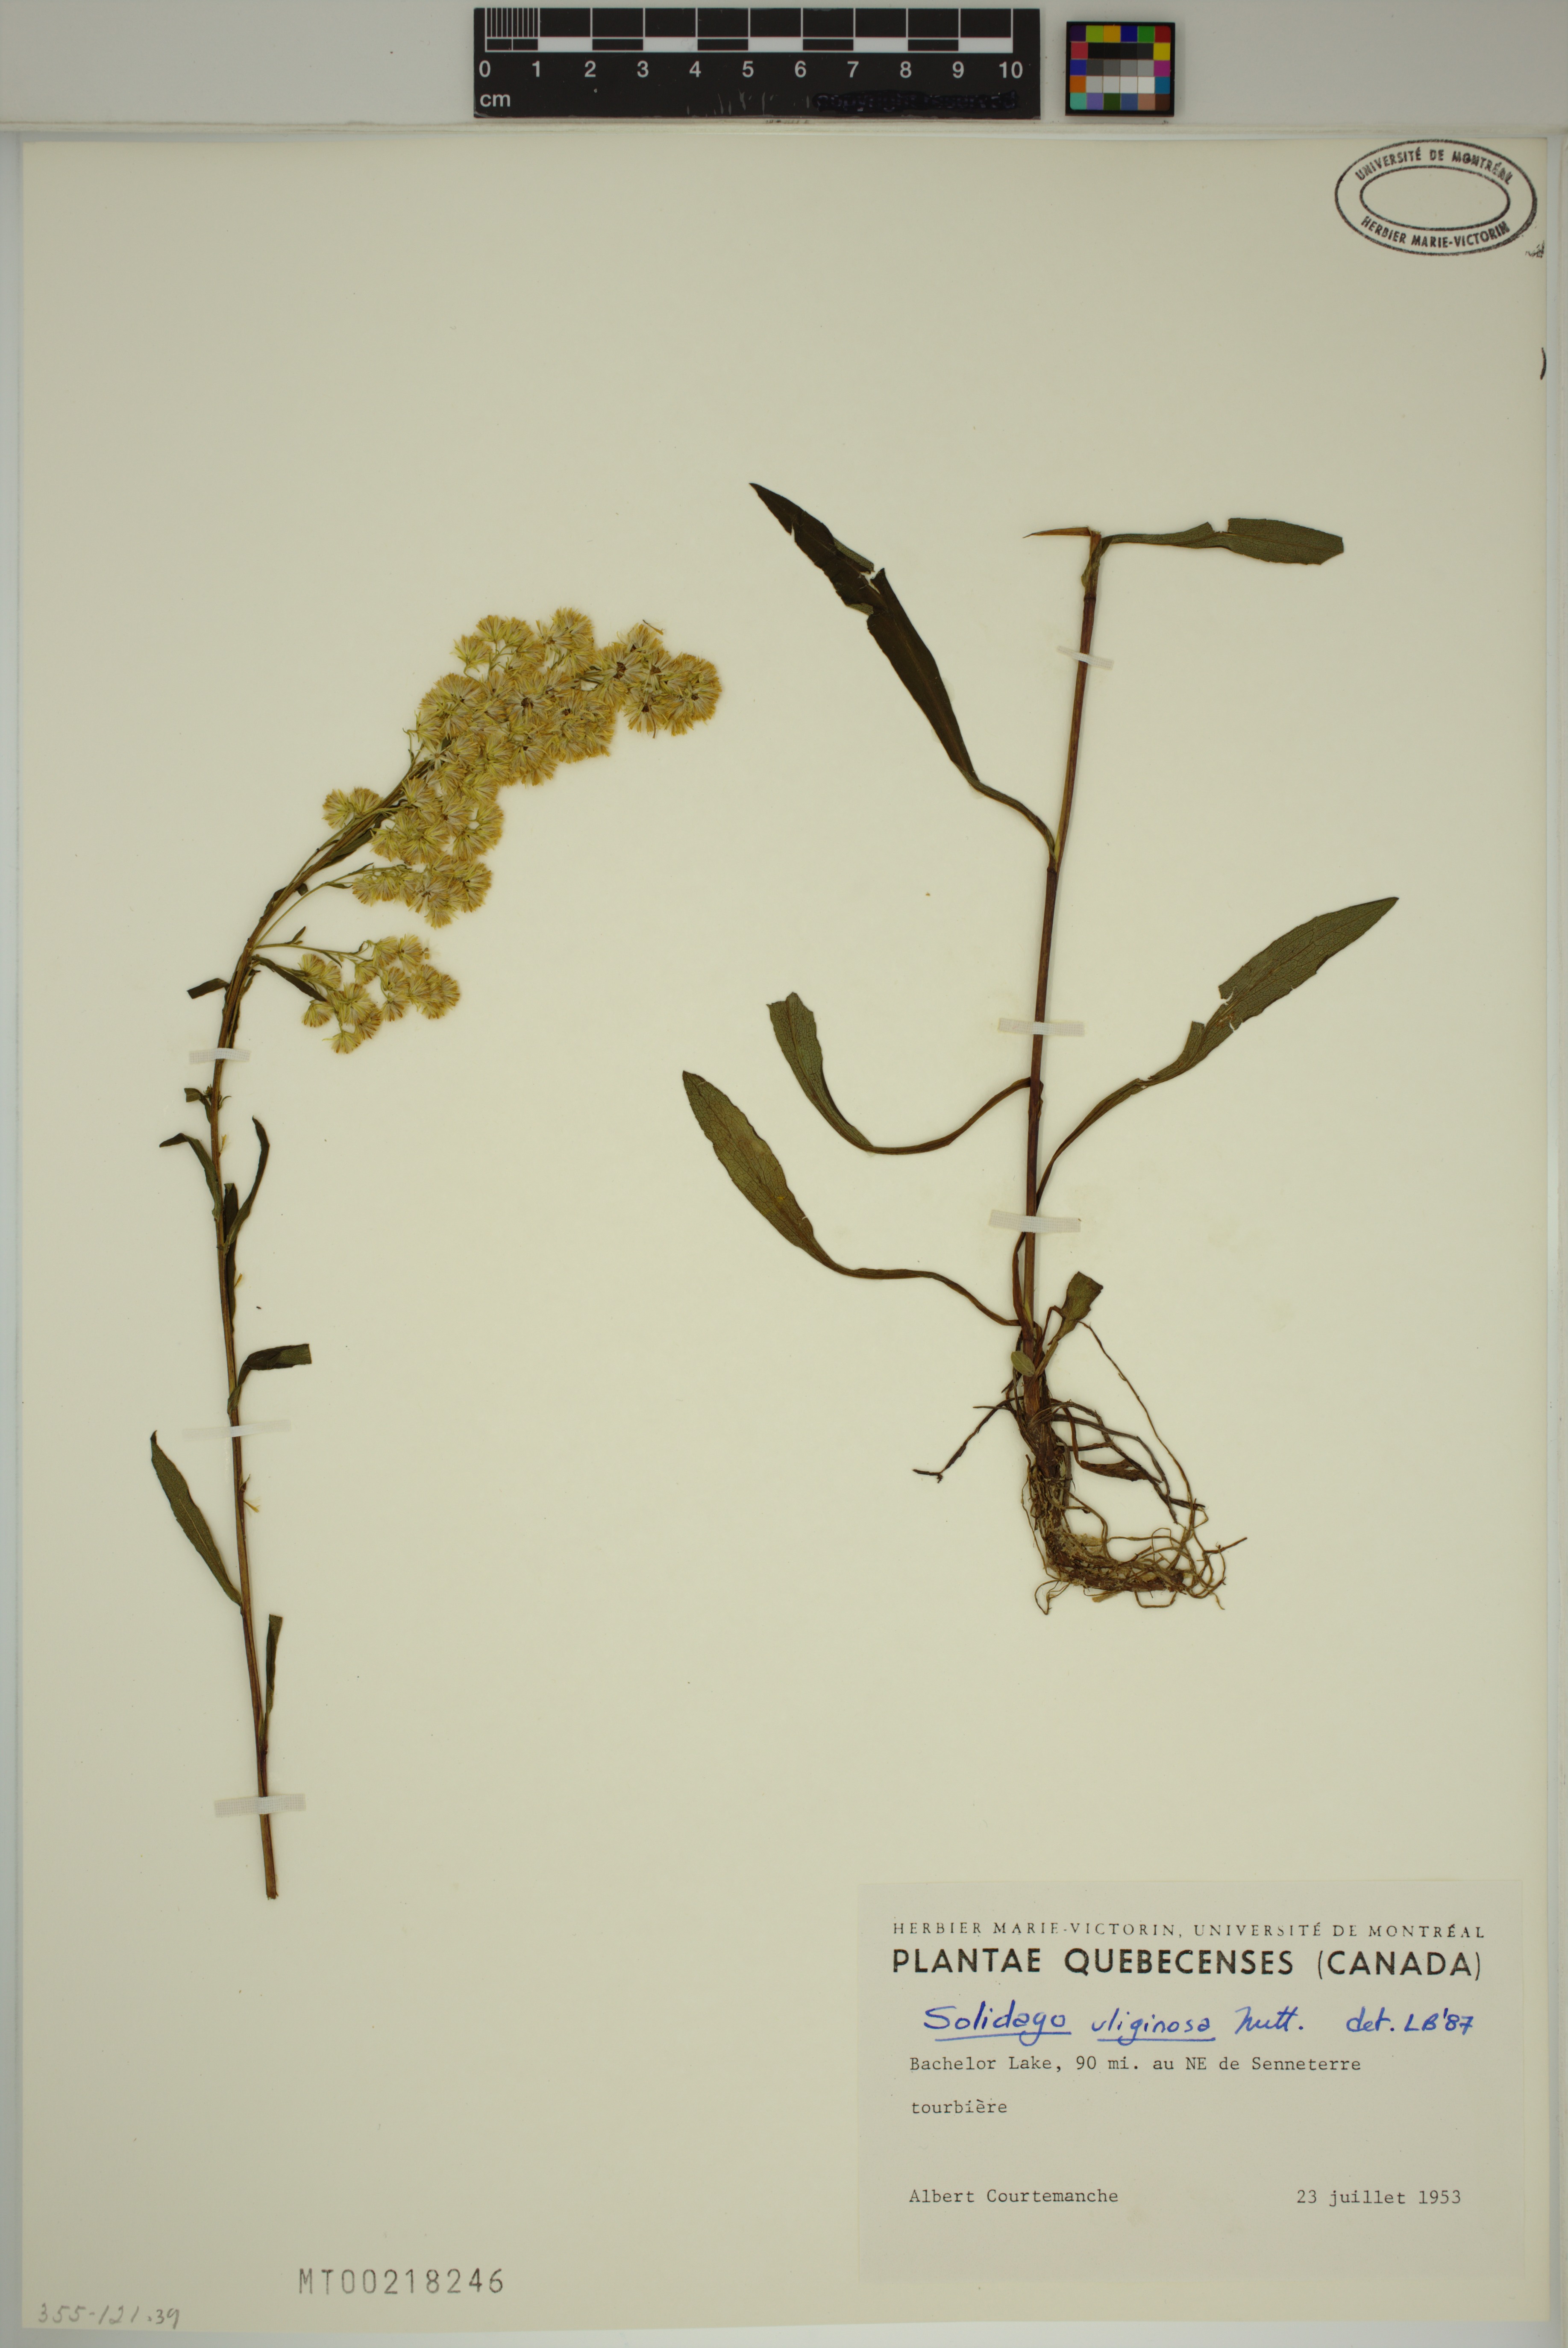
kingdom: Plantae
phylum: Tracheophyta
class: Magnoliopsida
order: Asterales
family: Asteraceae
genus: Solidago
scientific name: Solidago uliginosa
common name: Bog goldenrod
